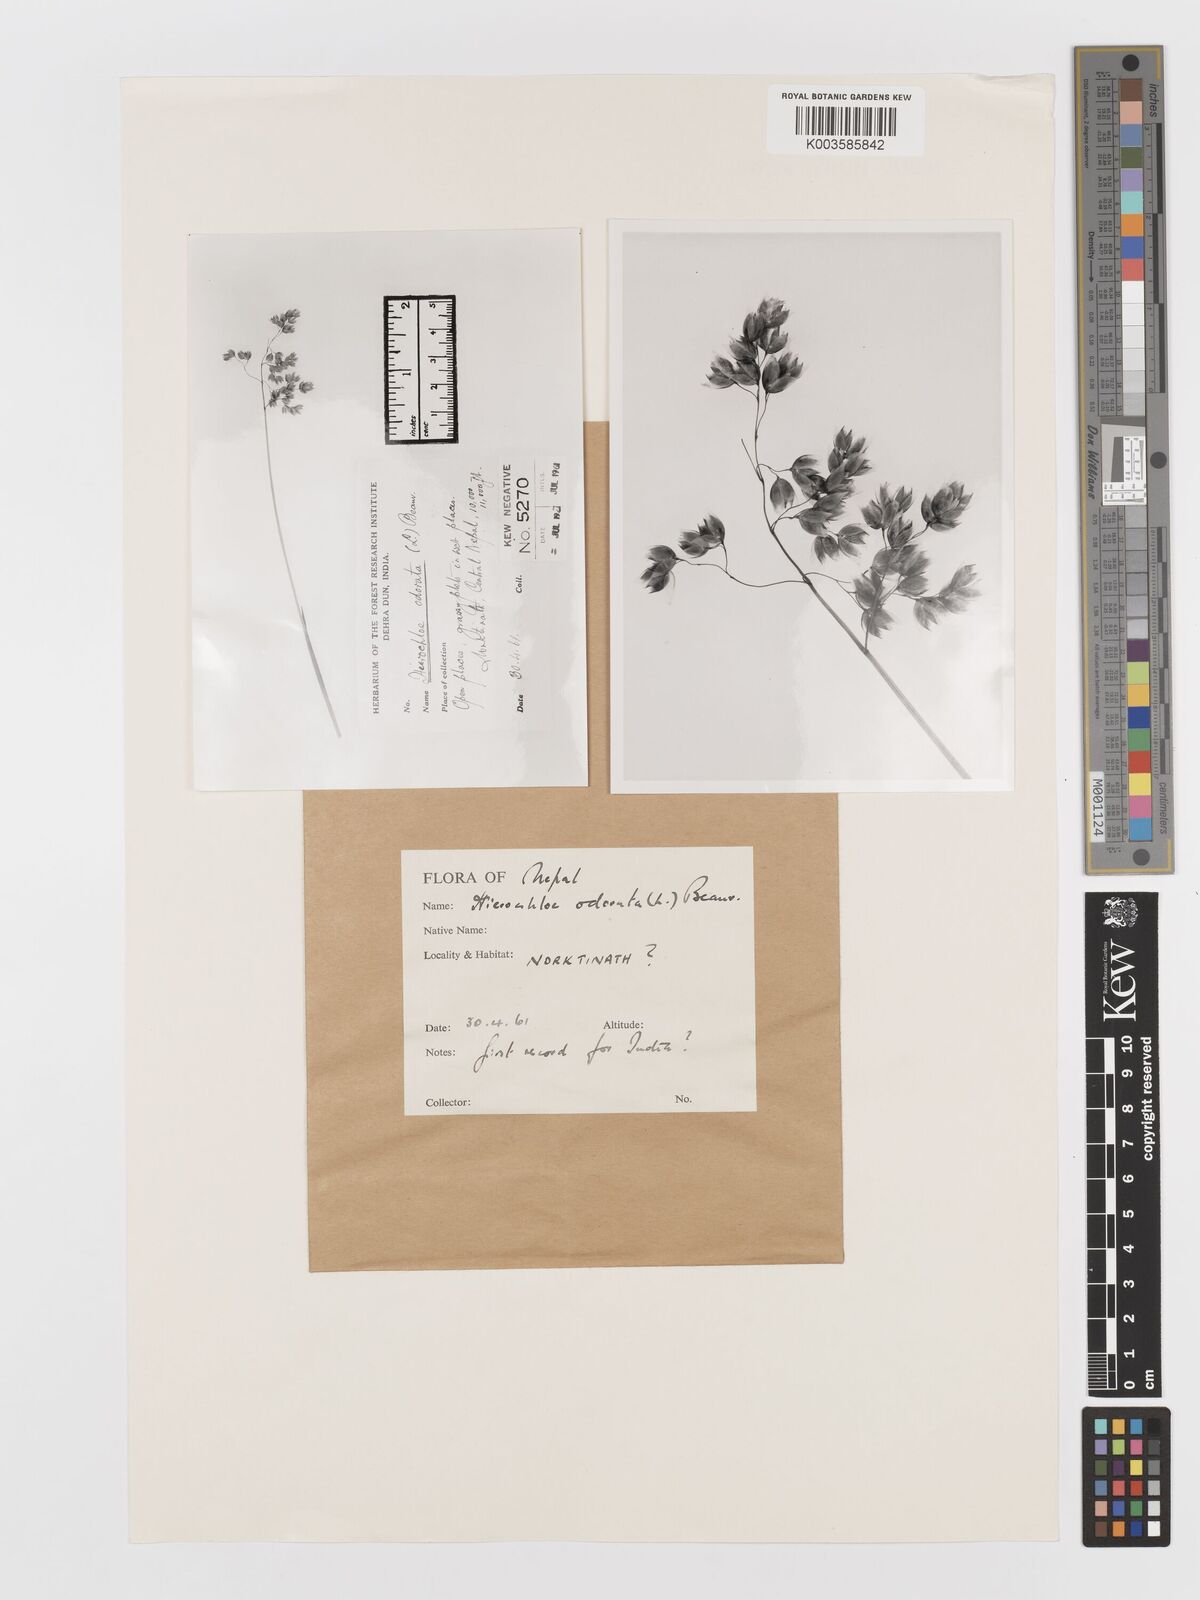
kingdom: Plantae
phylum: Tracheophyta
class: Liliopsida
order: Poales
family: Poaceae
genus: Anthoxanthum
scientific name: Anthoxanthum nitens
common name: Holy grass
